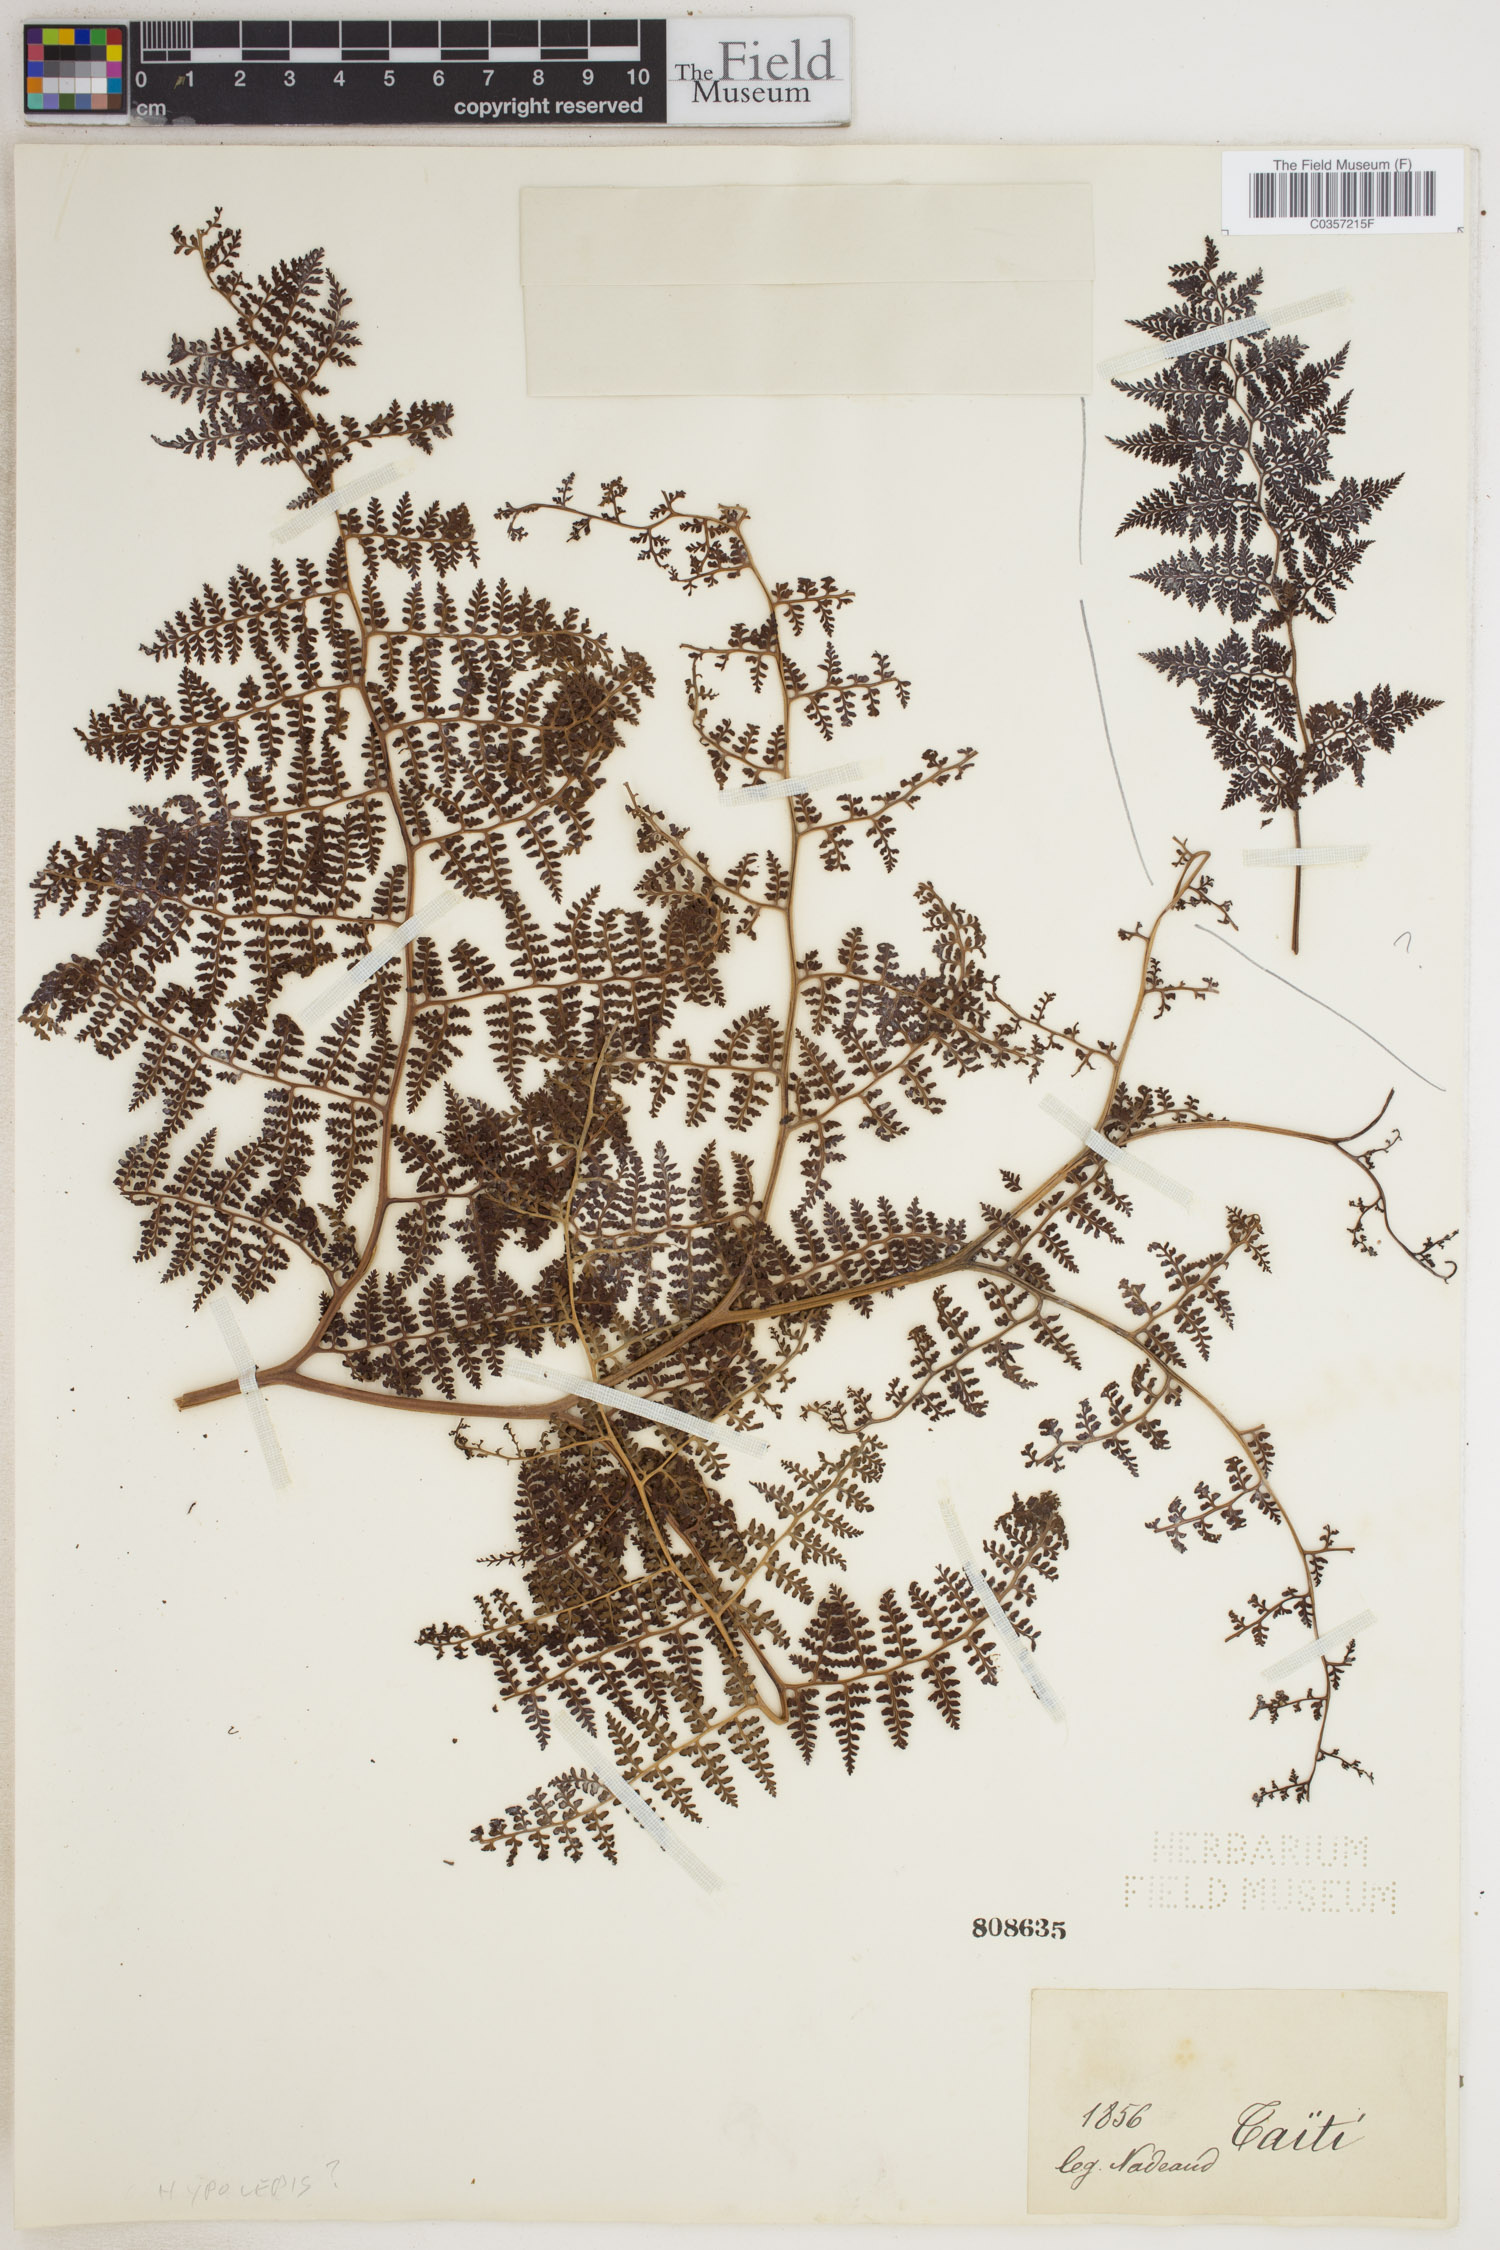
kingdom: Plantae
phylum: Tracheophyta
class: Polypodiopsida
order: Polypodiales
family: Dennstaedtiaceae
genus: Hypolepis
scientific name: Hypolepis
